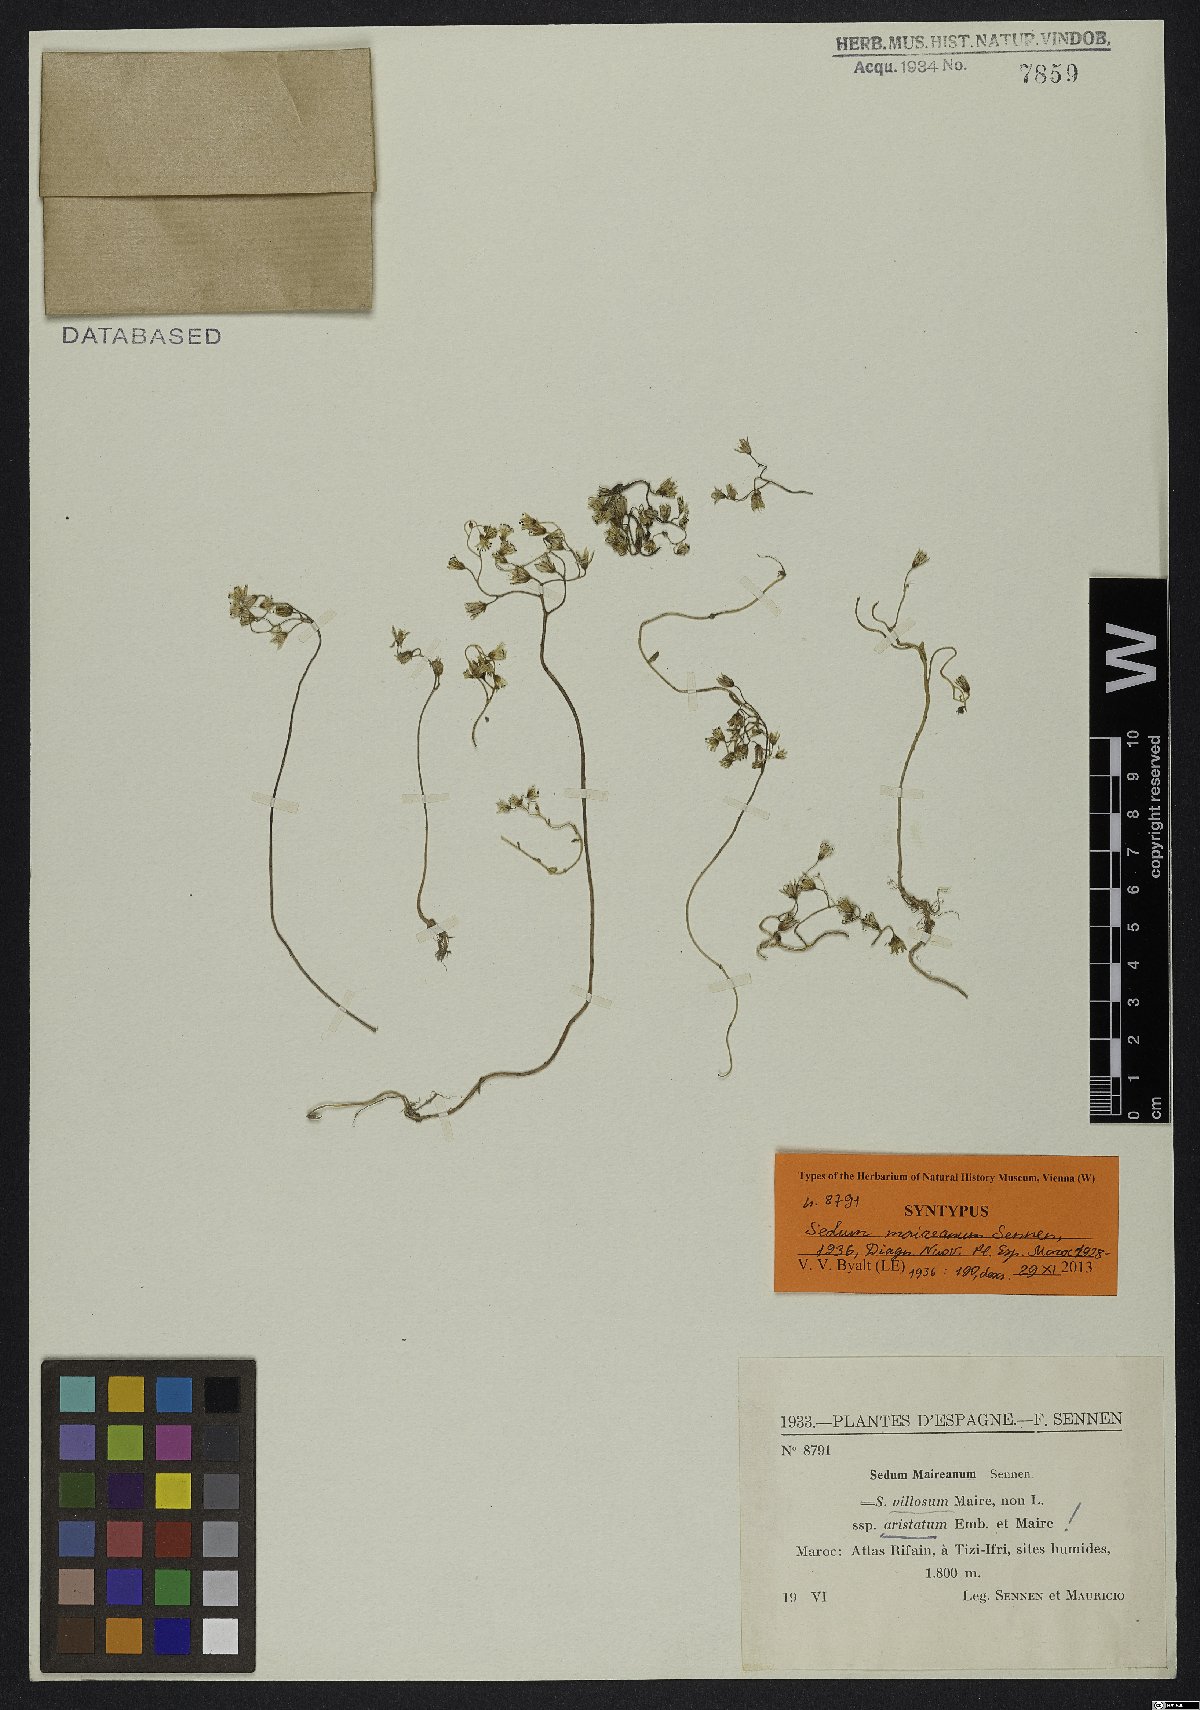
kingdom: Plantae
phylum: Tracheophyta
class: Magnoliopsida
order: Saxifragales
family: Crassulaceae
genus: Sedum
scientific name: Sedum maireanum
